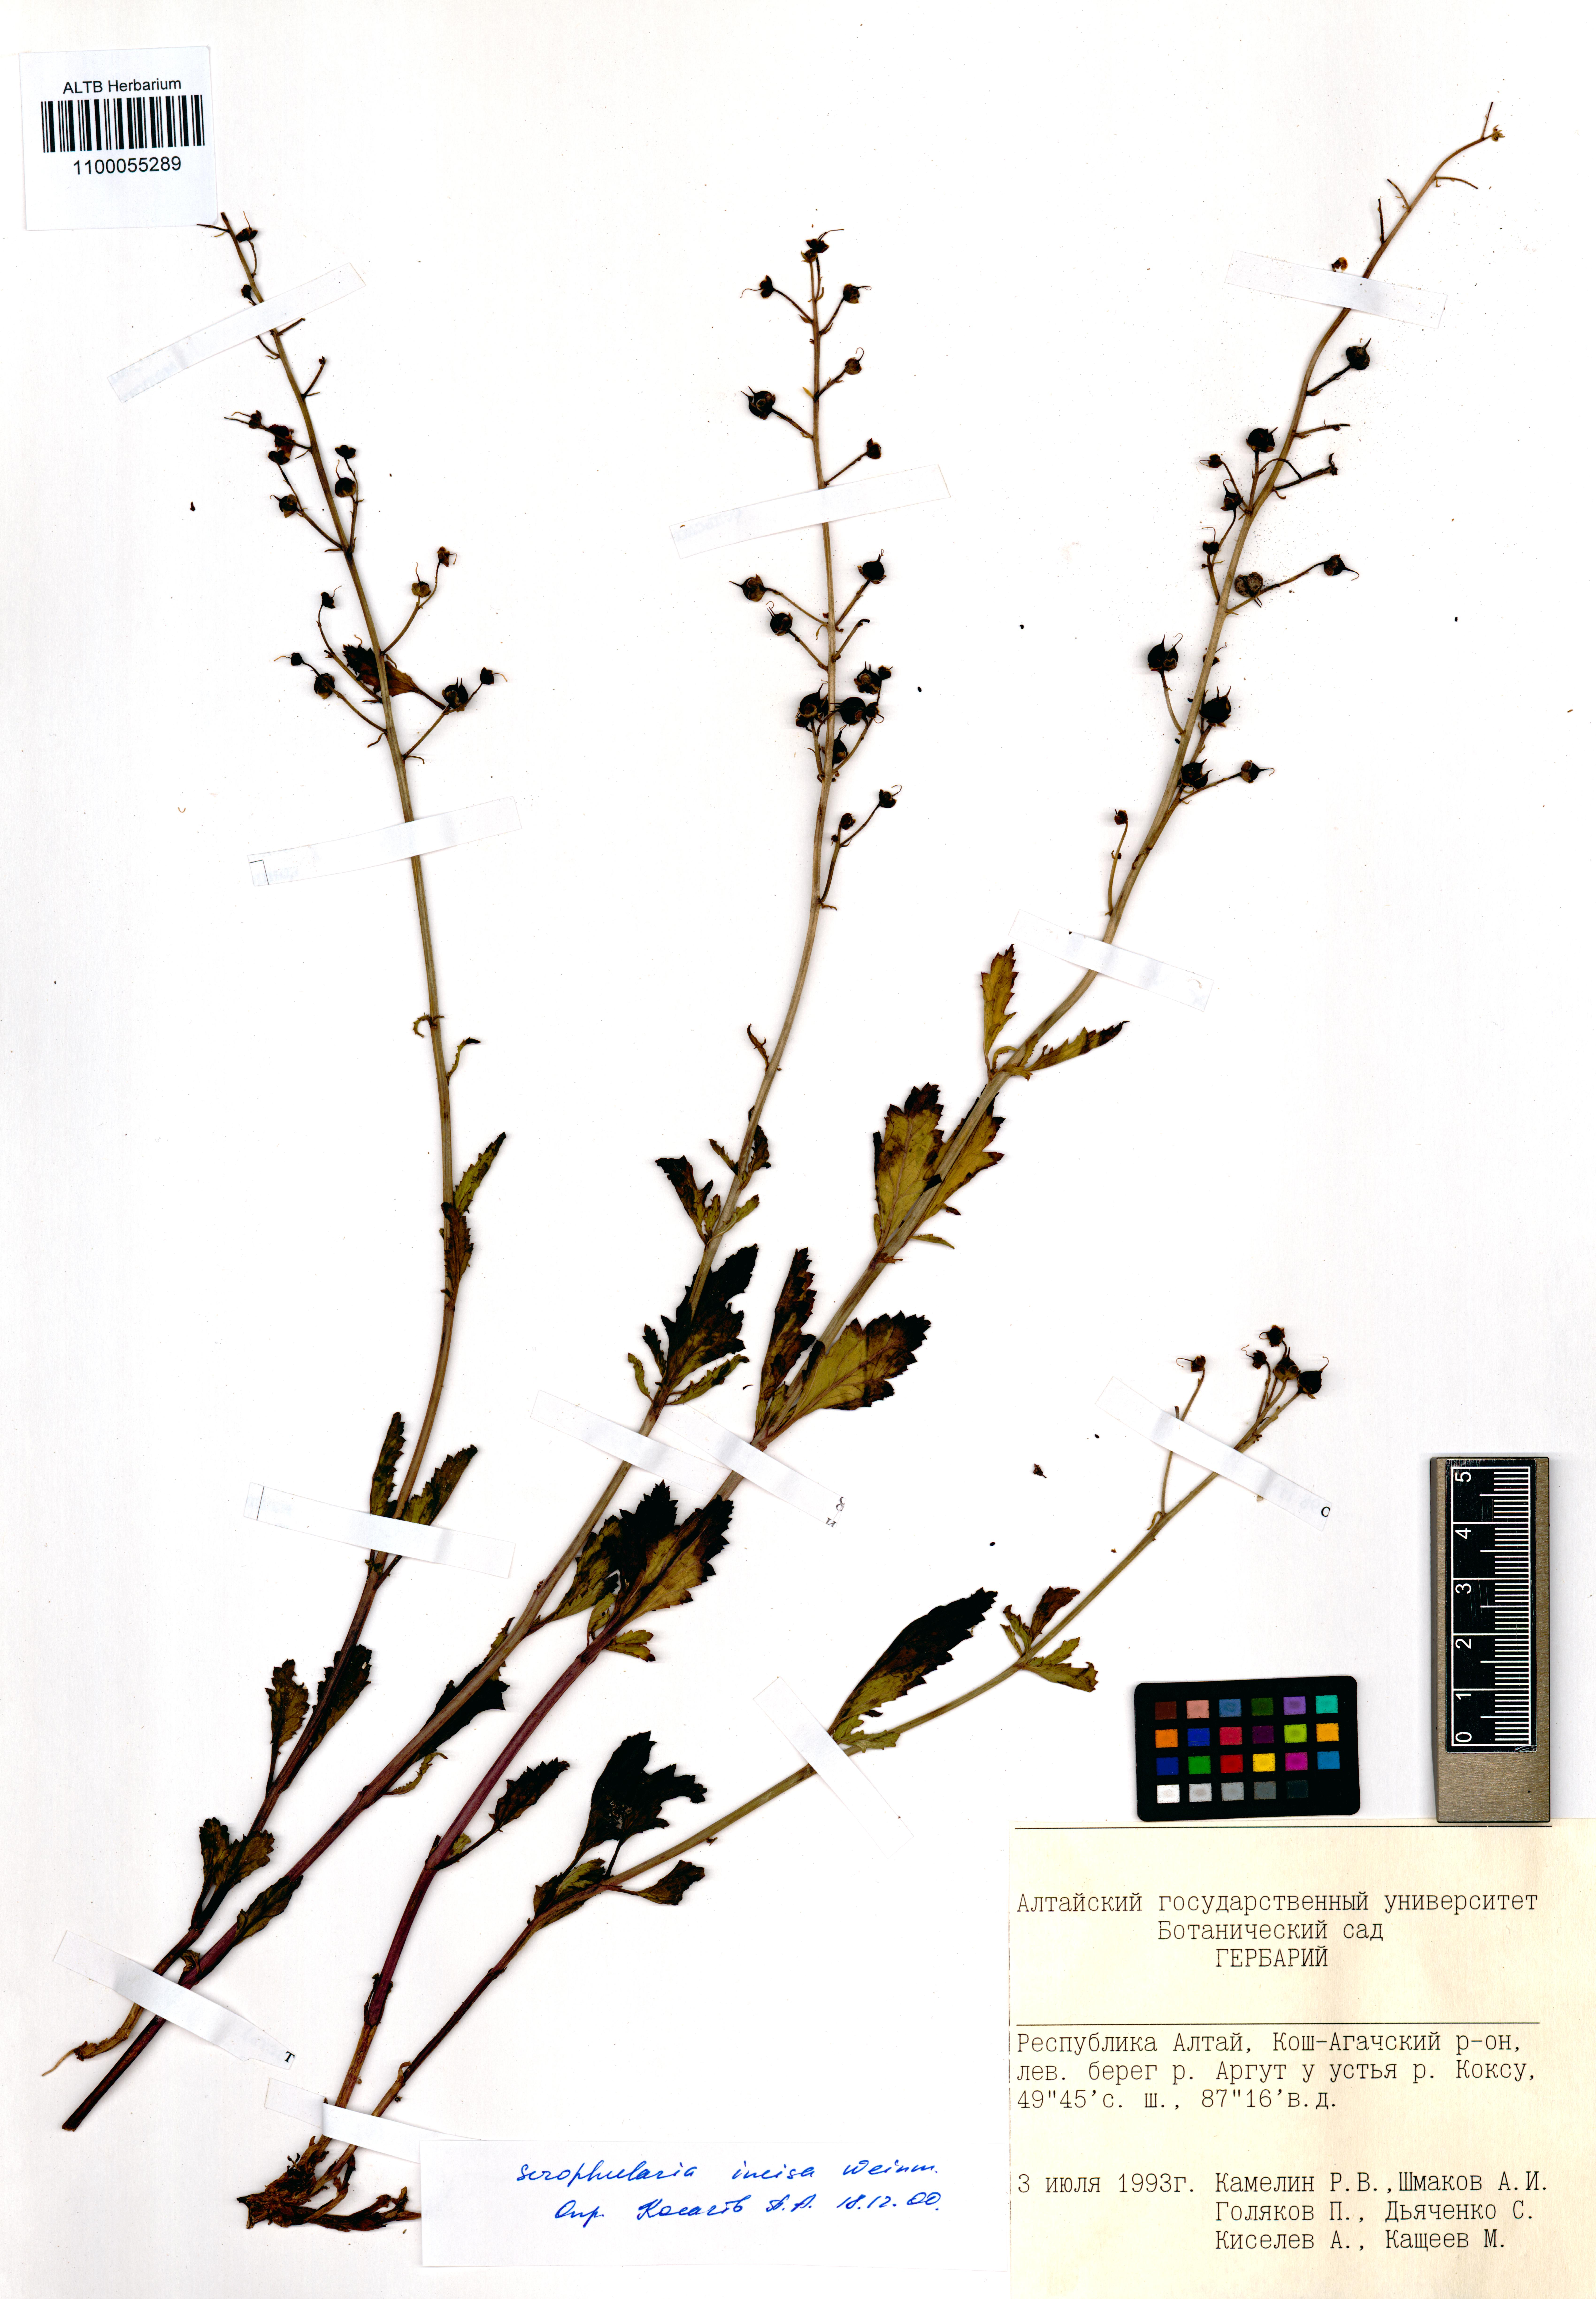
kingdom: Plantae
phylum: Tracheophyta
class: Magnoliopsida
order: Lamiales
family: Scrophulariaceae
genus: Scrophularia
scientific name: Scrophularia incisa
